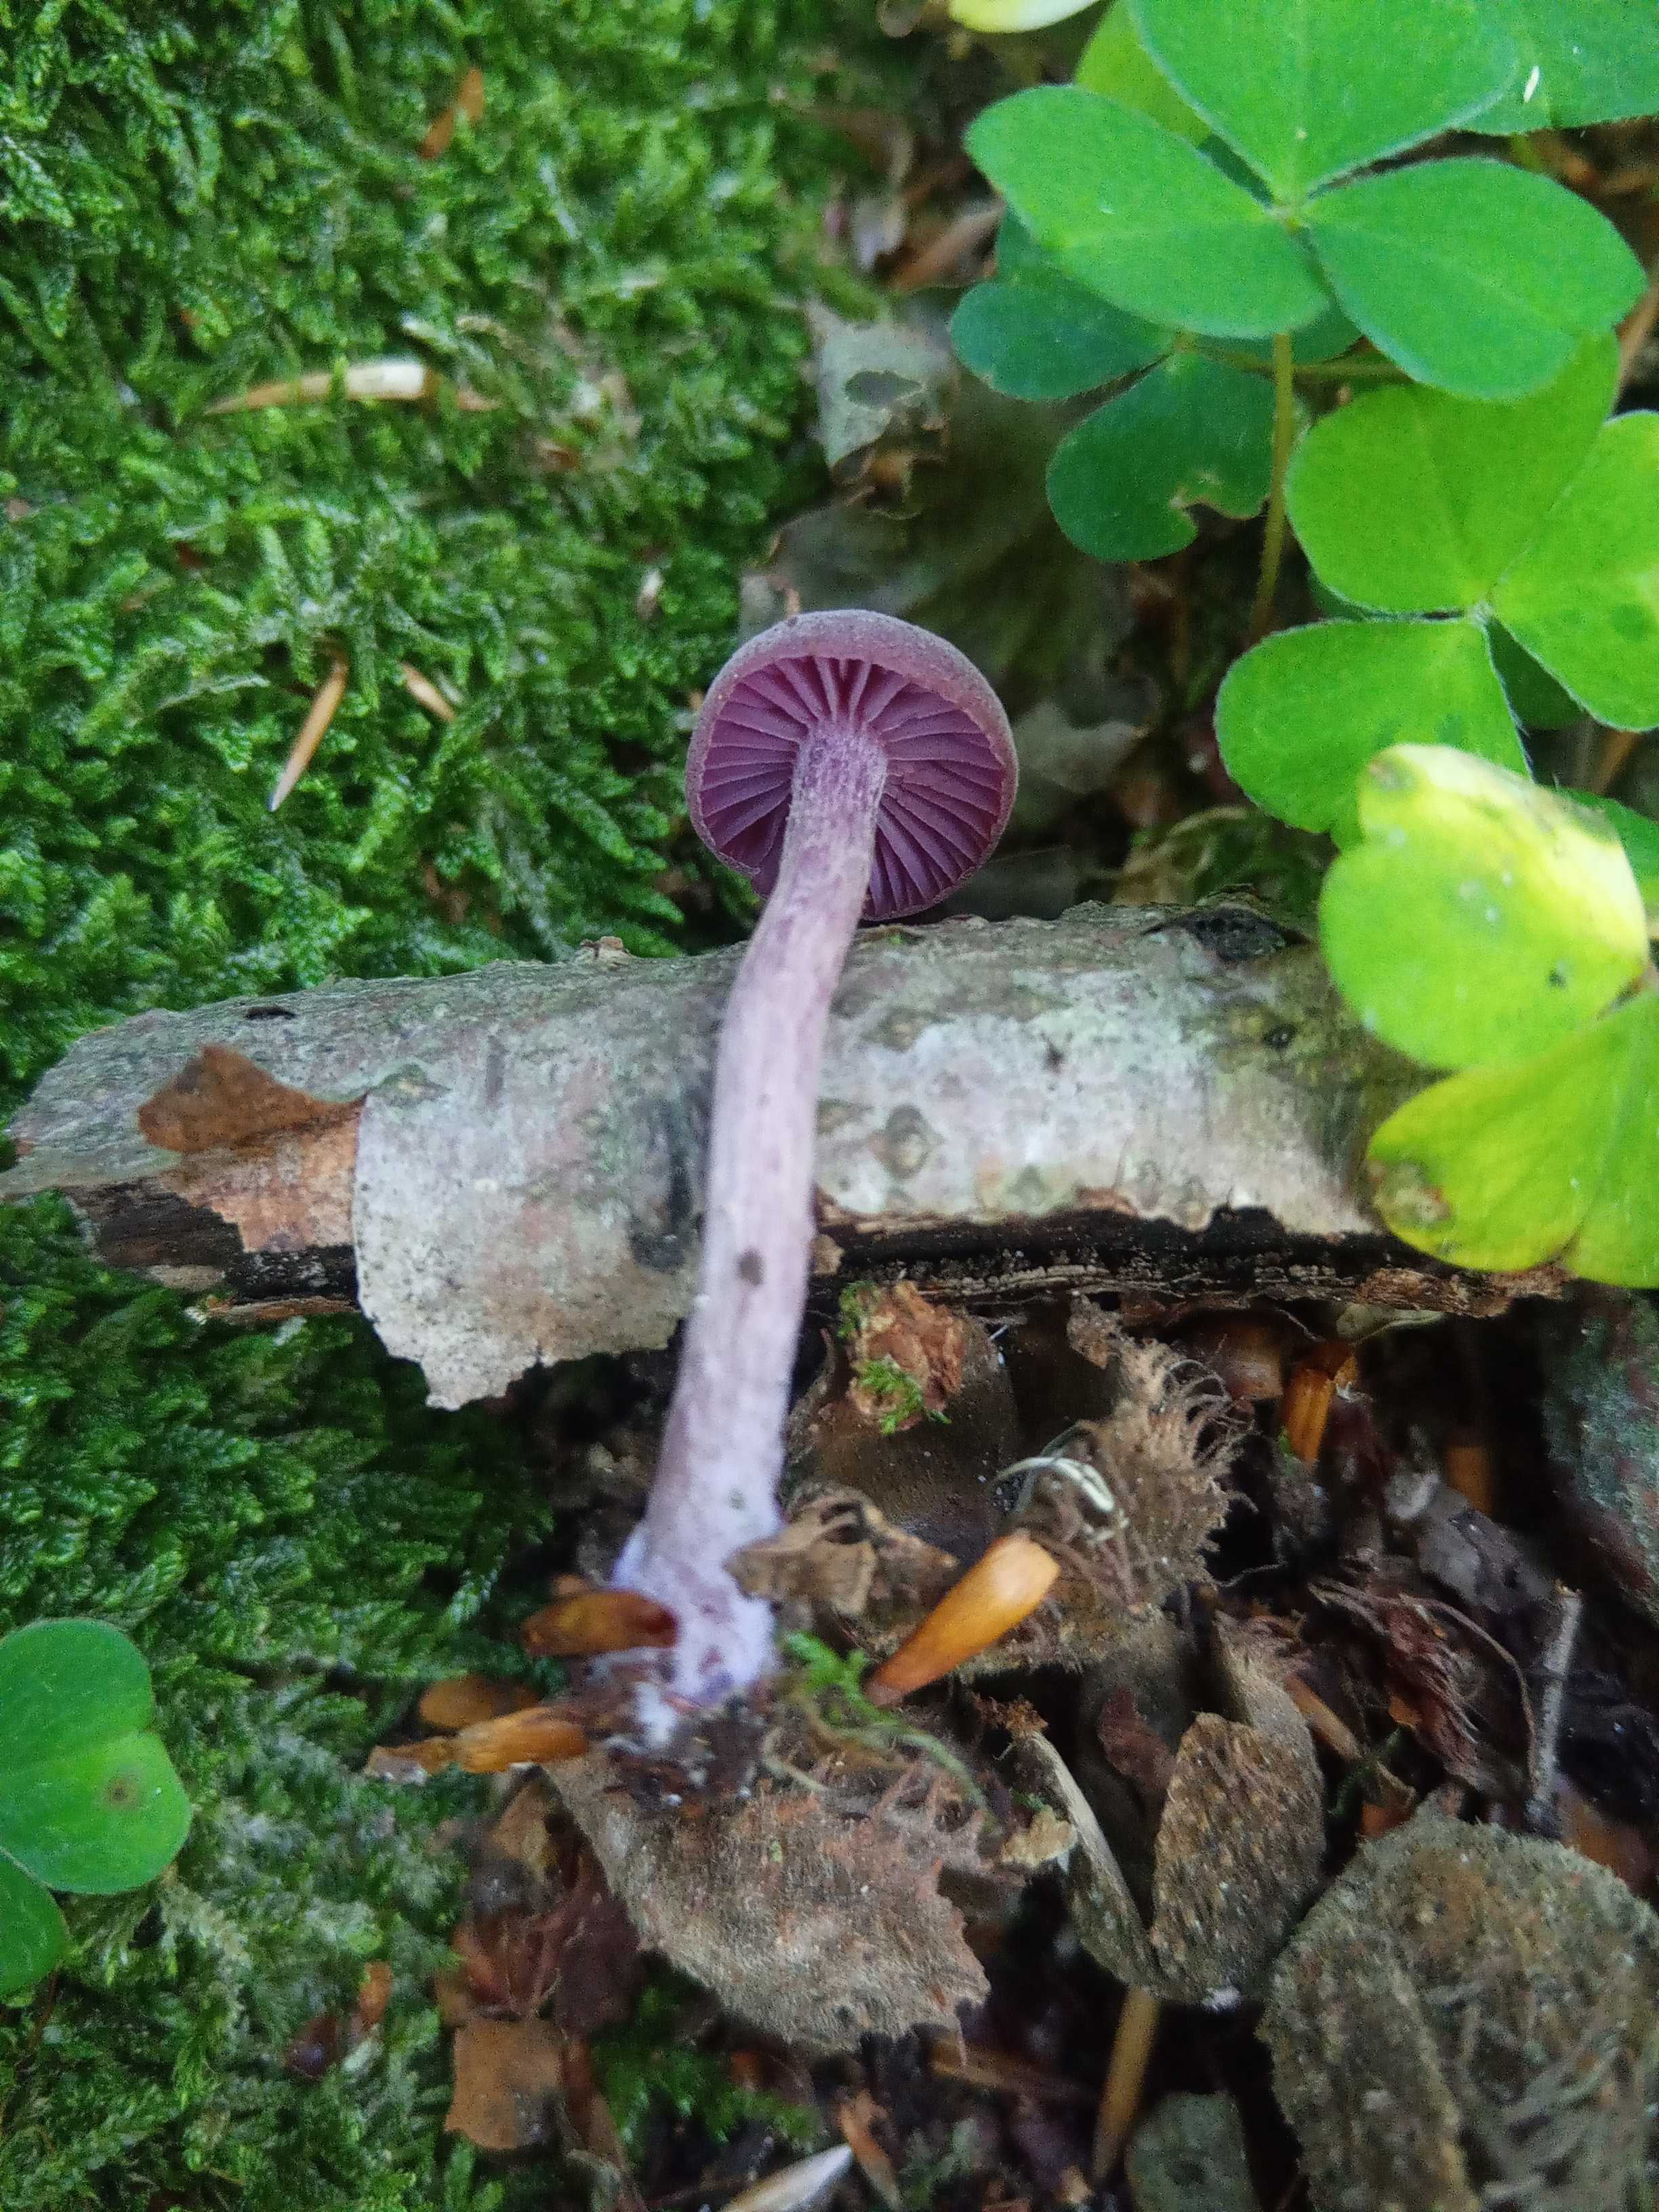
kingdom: Fungi
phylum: Basidiomycota
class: Agaricomycetes
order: Agaricales
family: Hydnangiaceae
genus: Laccaria
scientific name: Laccaria amethystina
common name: violet ametysthat
